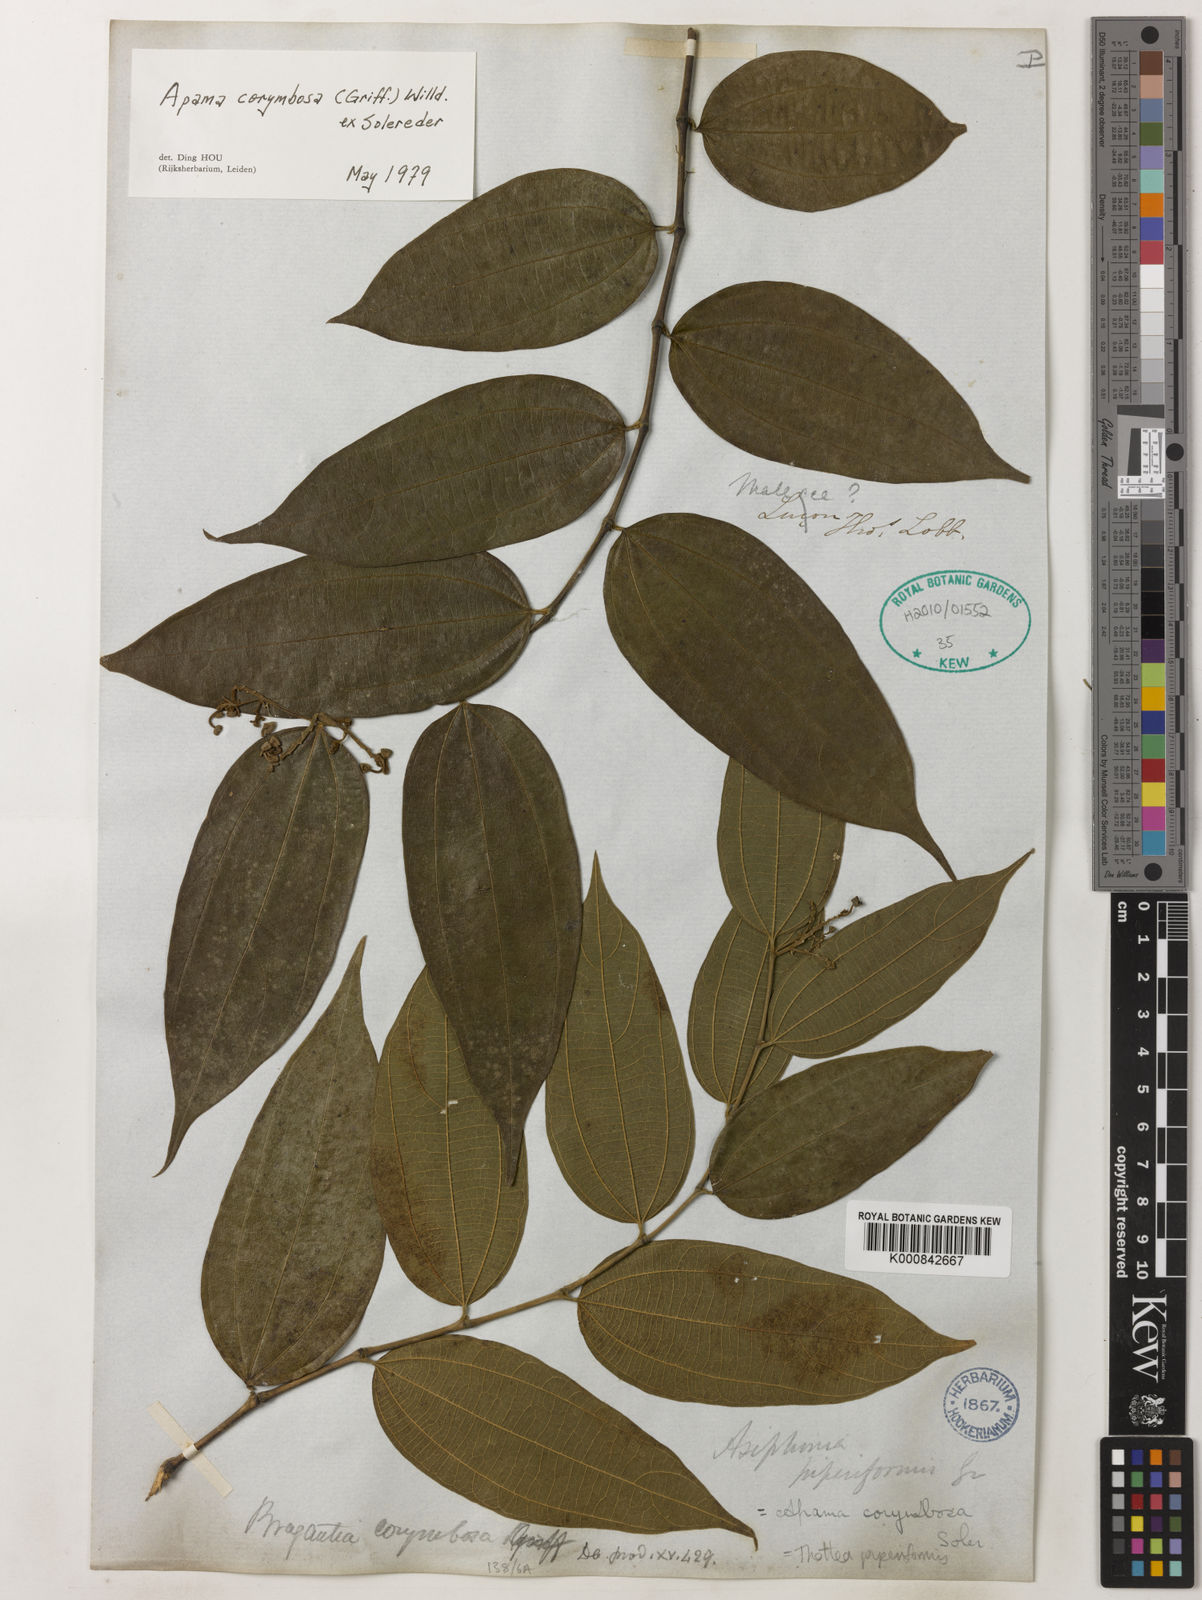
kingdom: Plantae
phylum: Tracheophyta
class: Magnoliopsida
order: Piperales
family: Aristolochiaceae
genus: Thottea
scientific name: Thottea piperiformis
